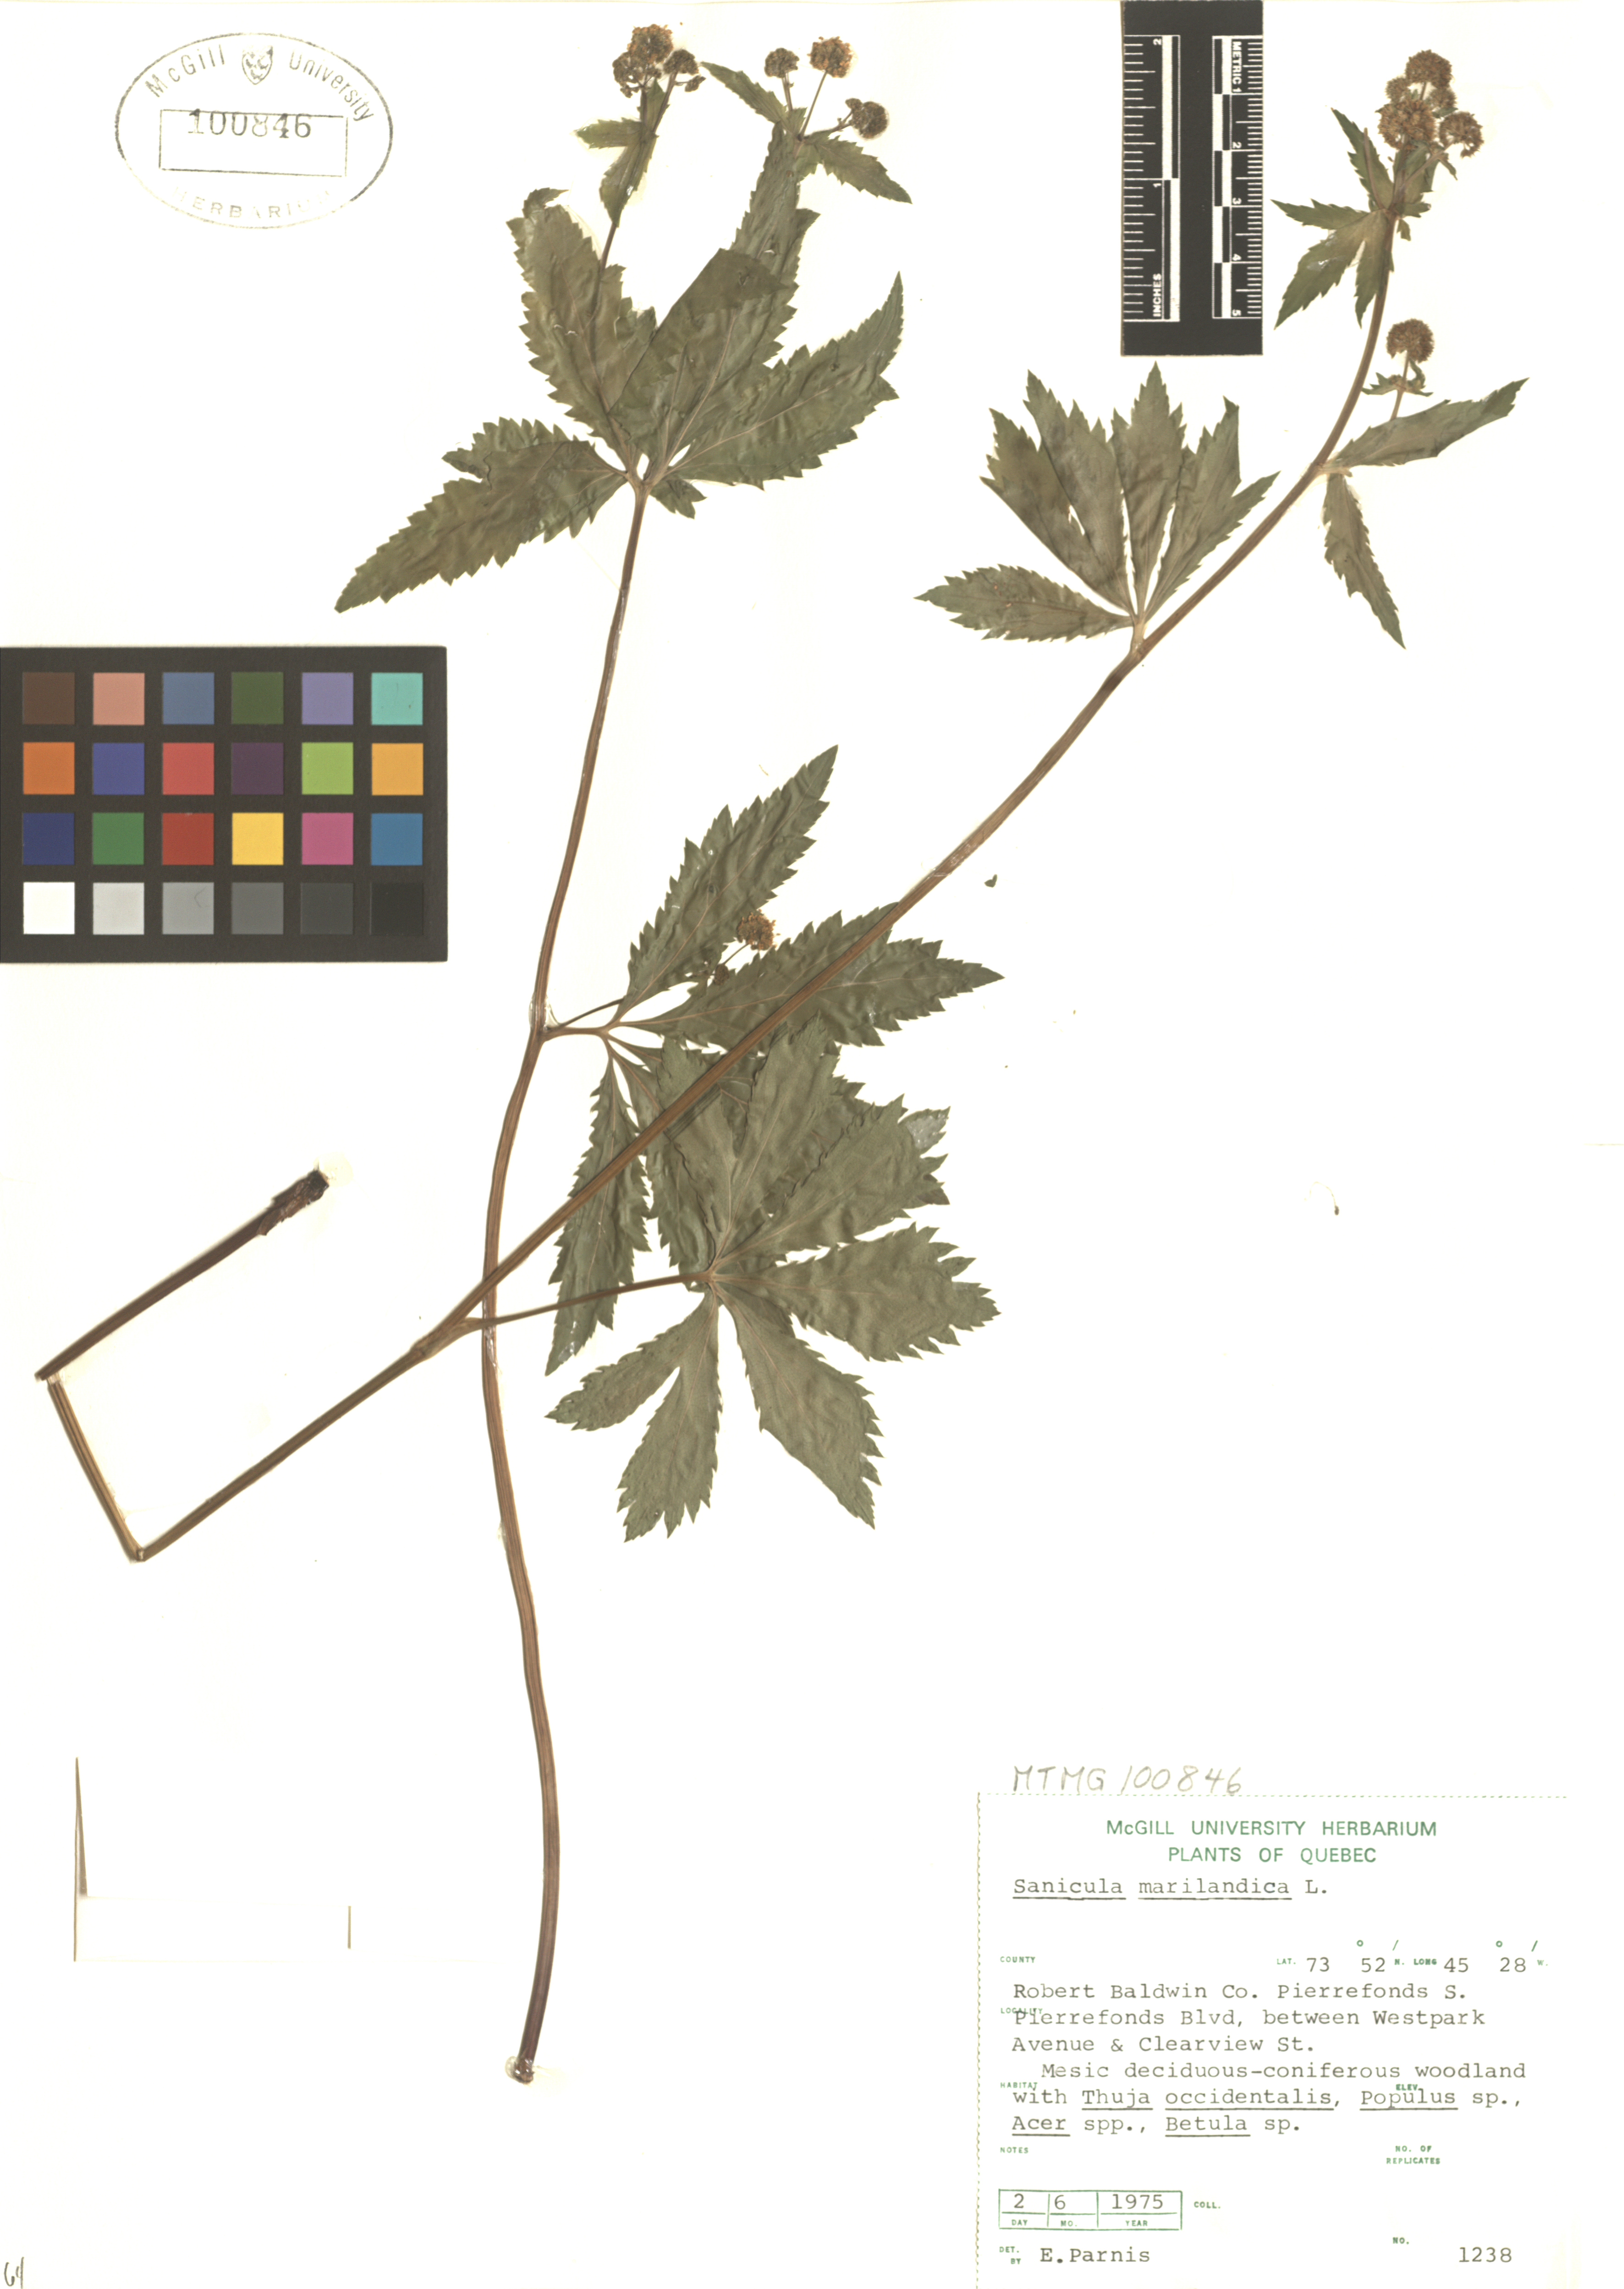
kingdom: Plantae
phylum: Tracheophyta
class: Magnoliopsida
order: Apiales
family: Apiaceae
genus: Sanicula
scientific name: Sanicula marilandica
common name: Black snakeroot
